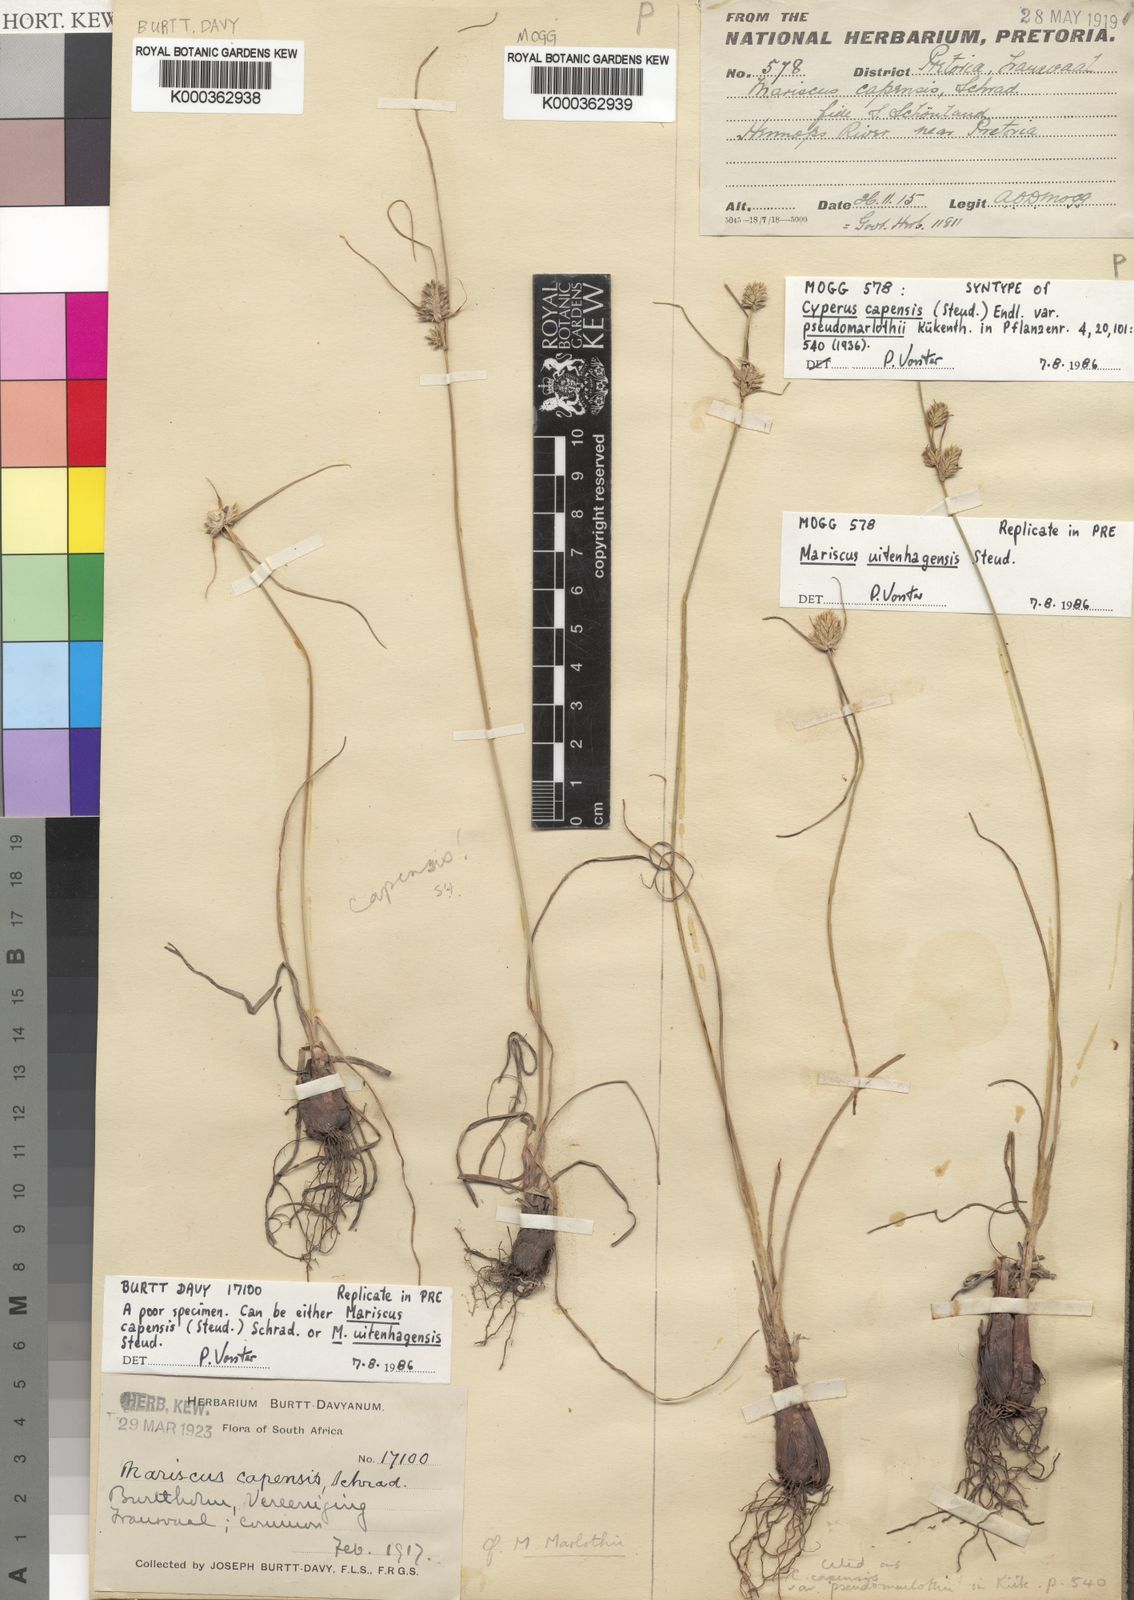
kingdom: Plantae
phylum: Tracheophyta
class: Liliopsida
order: Poales
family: Cyperaceae
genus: Cyperus
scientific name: Cyperus capensis
